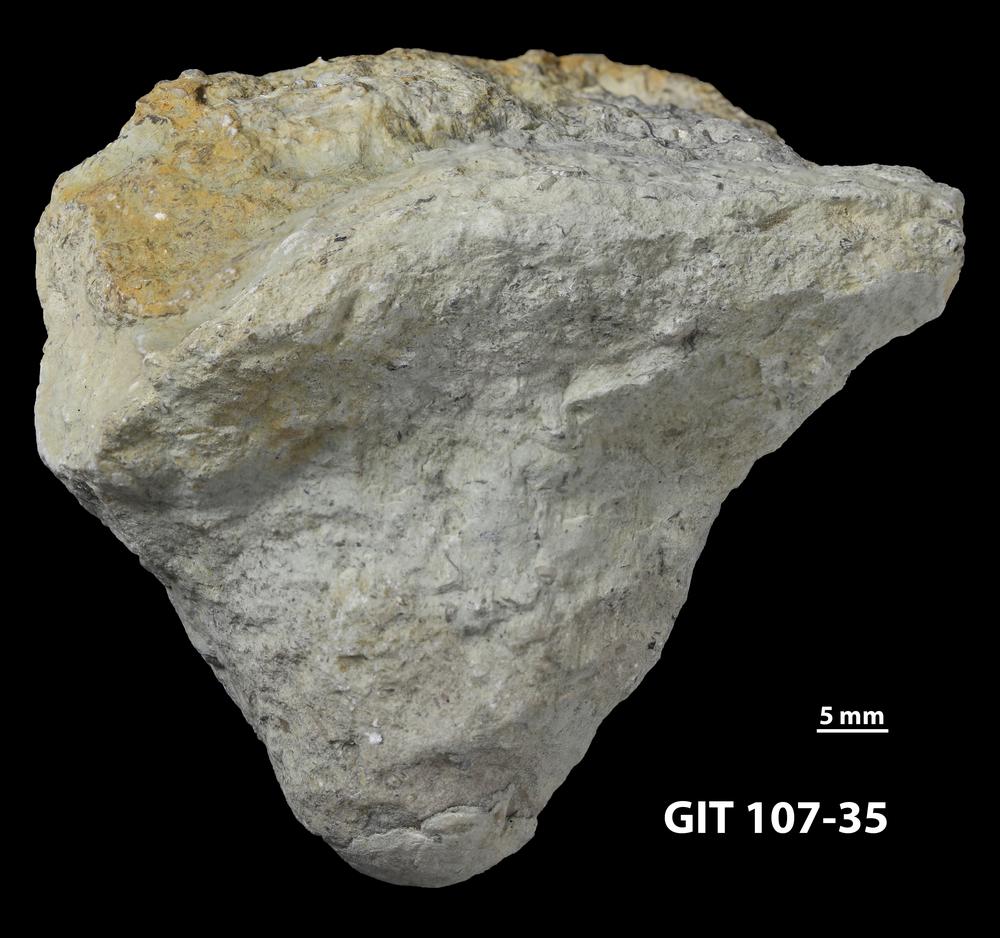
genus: Conichnus
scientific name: Conichnus
